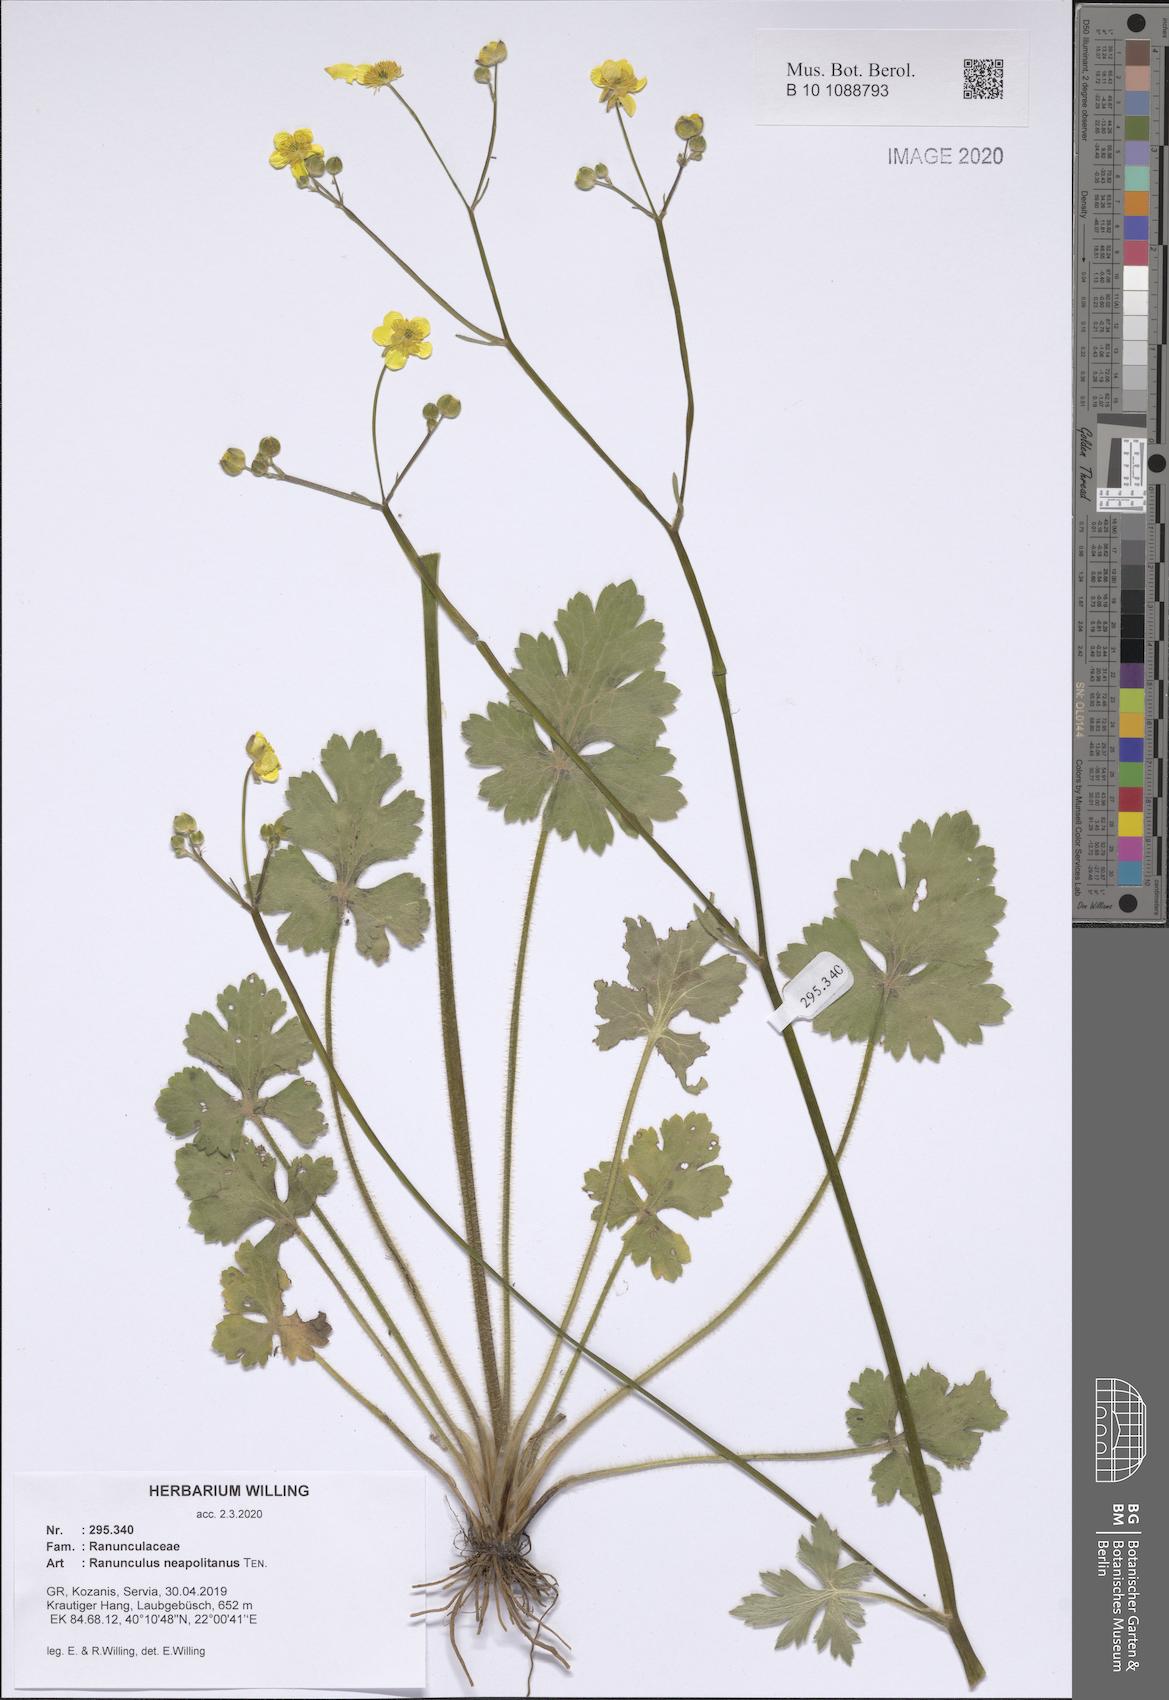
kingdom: Plantae
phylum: Tracheophyta
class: Magnoliopsida
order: Ranunculales
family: Ranunculaceae
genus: Ranunculus
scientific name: Ranunculus neapolitanus
